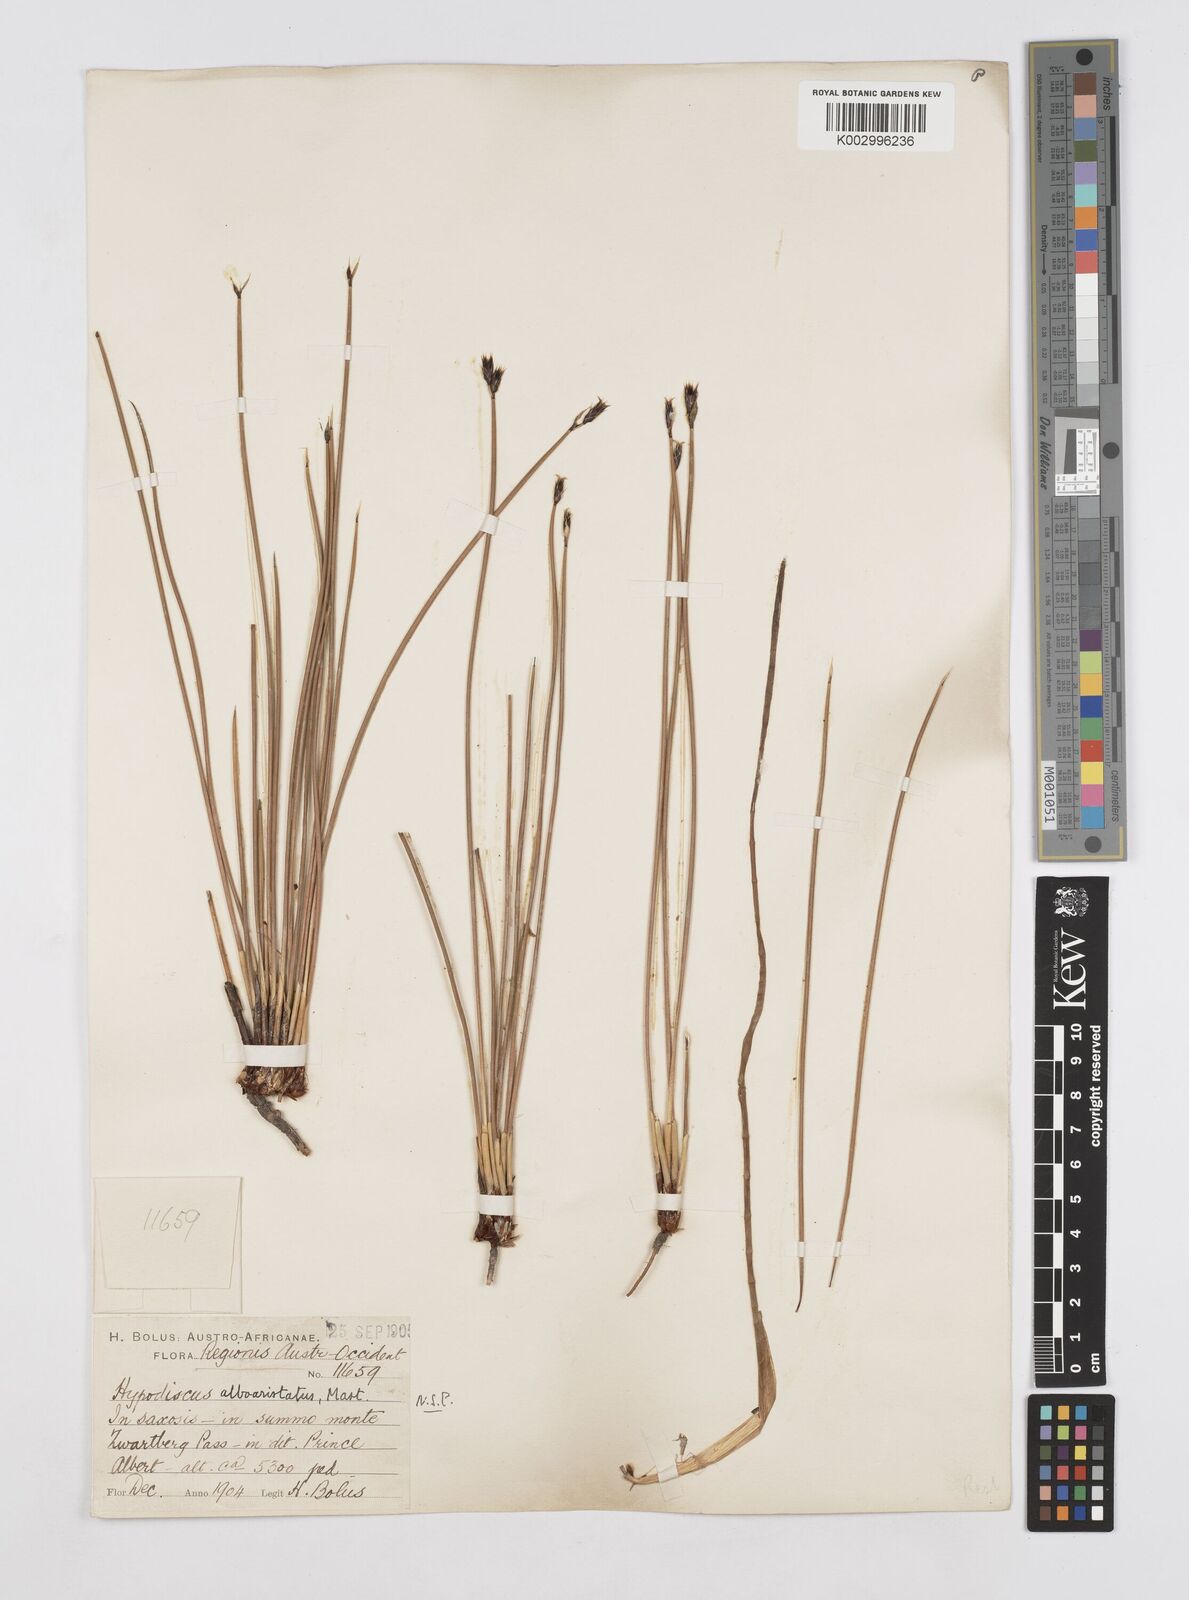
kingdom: Plantae
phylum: Tracheophyta
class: Liliopsida
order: Poales
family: Restionaceae
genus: Hypodiscus
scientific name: Hypodiscus alboaristatus
